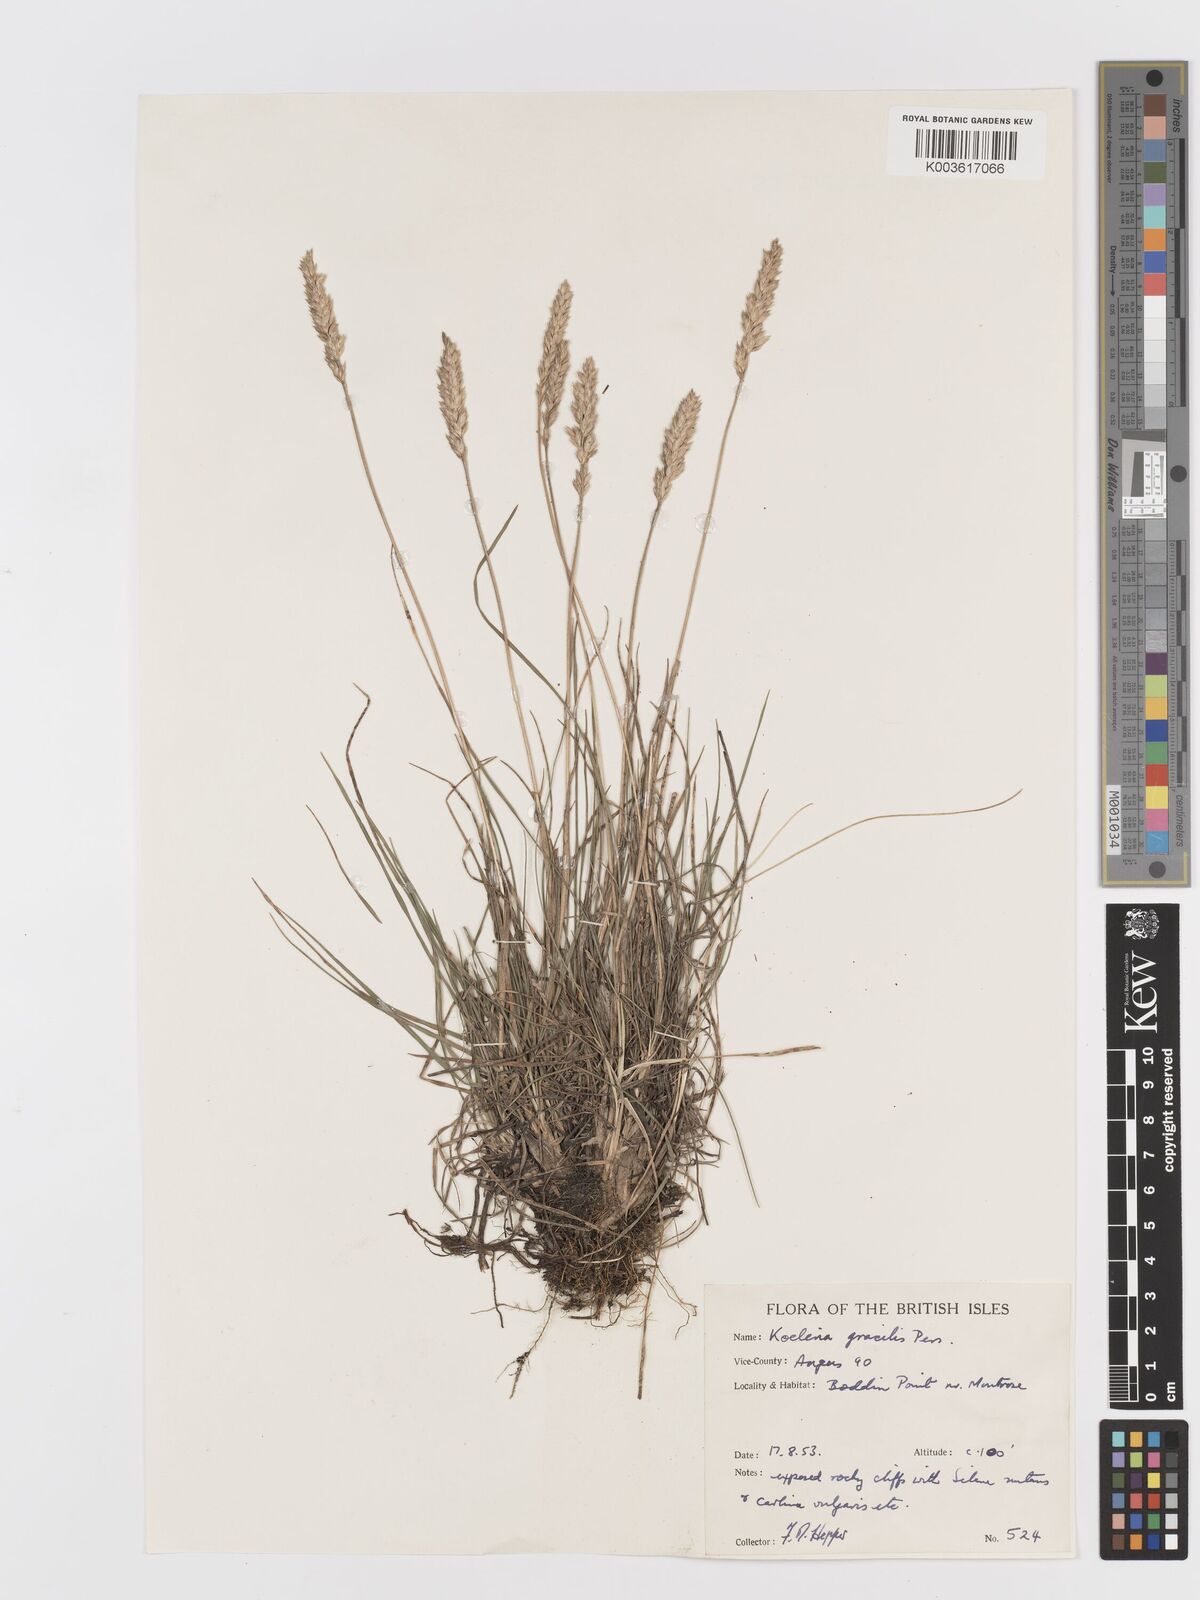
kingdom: Plantae
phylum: Tracheophyta
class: Liliopsida
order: Poales
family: Poaceae
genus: Koeleria
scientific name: Koeleria macrantha
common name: Crested hair-grass
